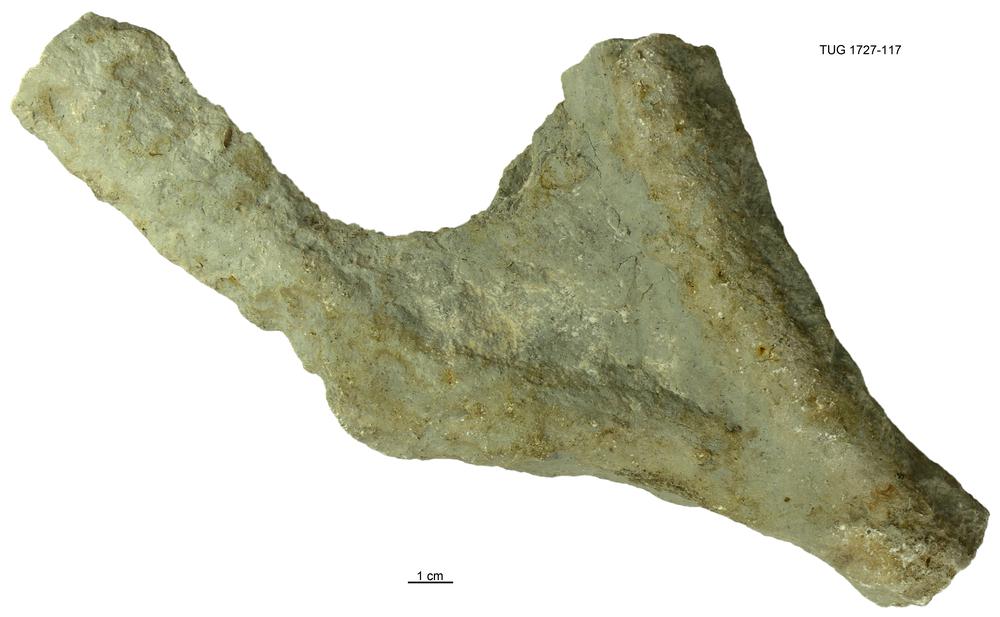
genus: Thalassinoides
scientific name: Thalassinoides
